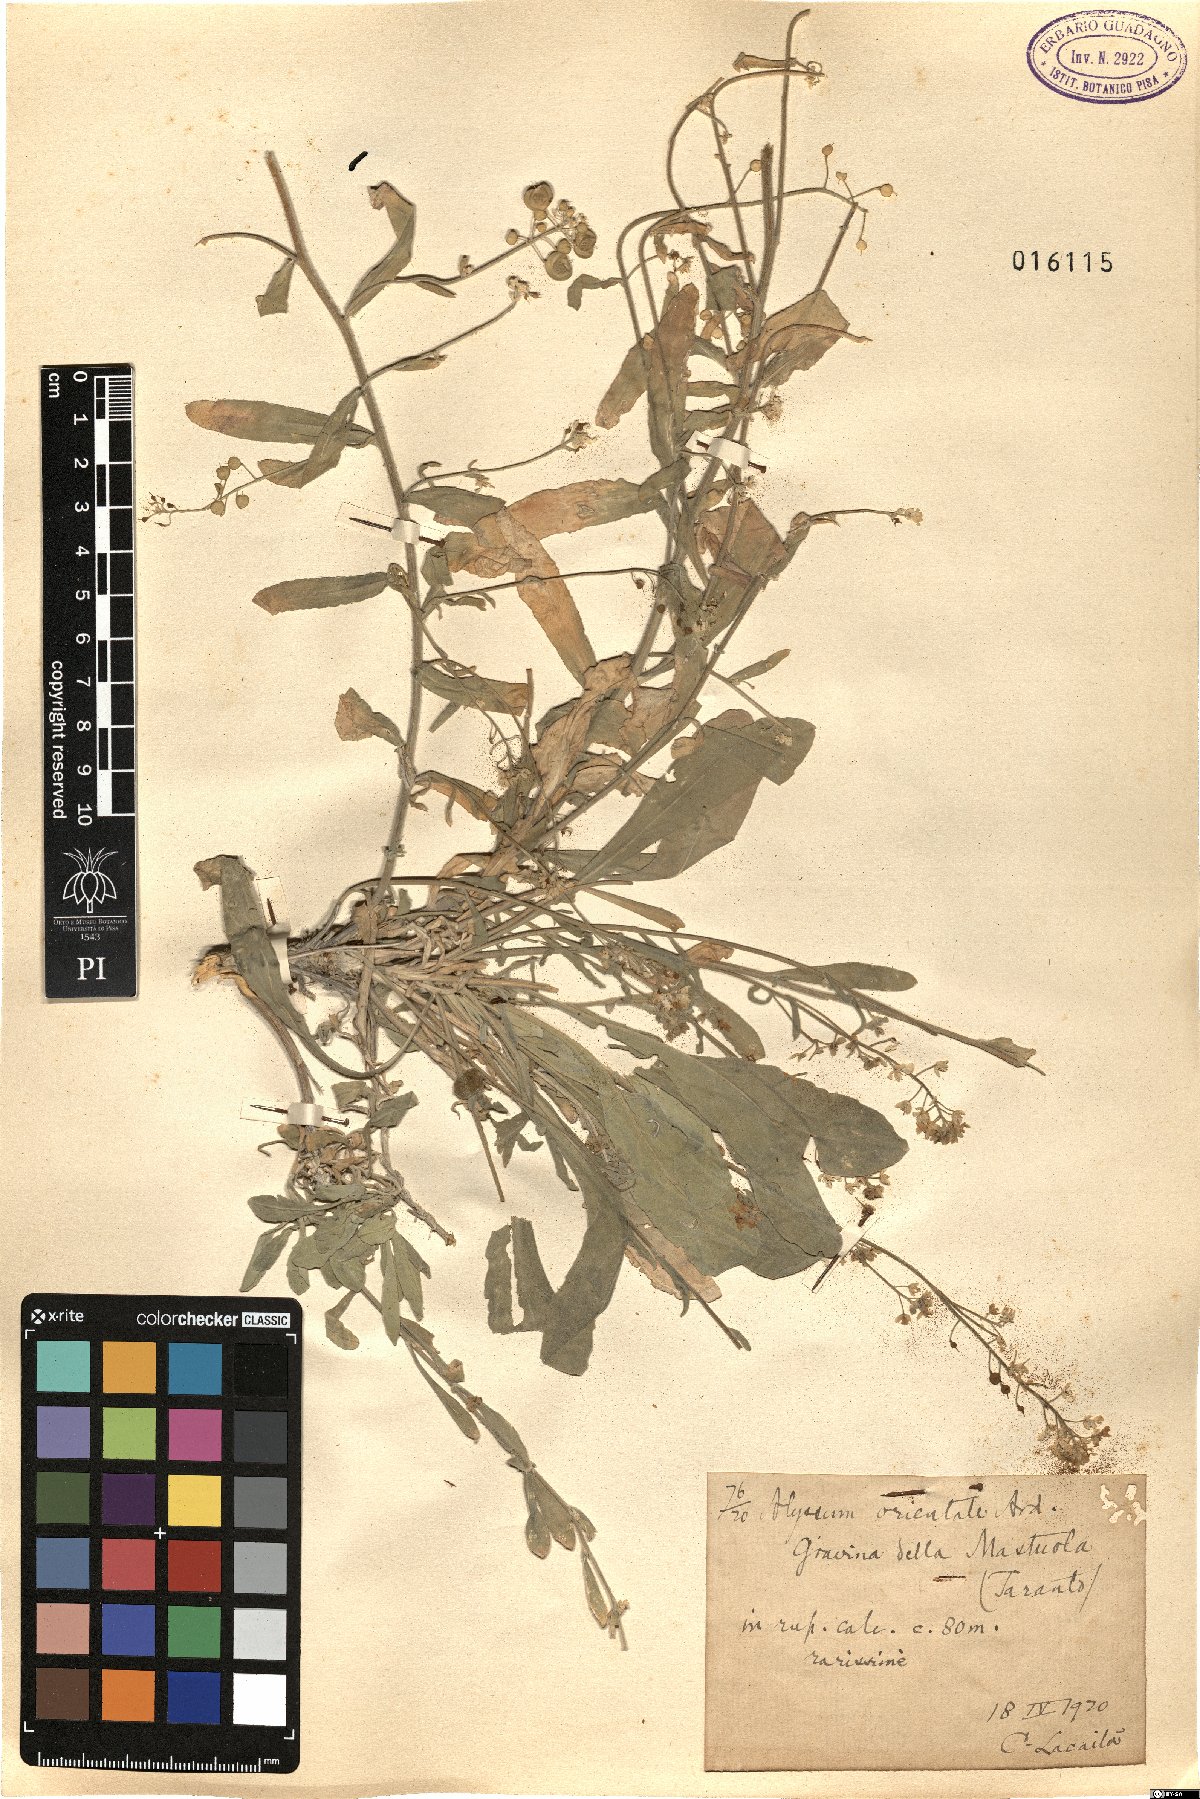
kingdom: Plantae
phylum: Tracheophyta
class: Magnoliopsida
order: Brassicales
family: Brassicaceae
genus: Aurinia
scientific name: Aurinia saxatilis
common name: Golden-tuft alyssum
